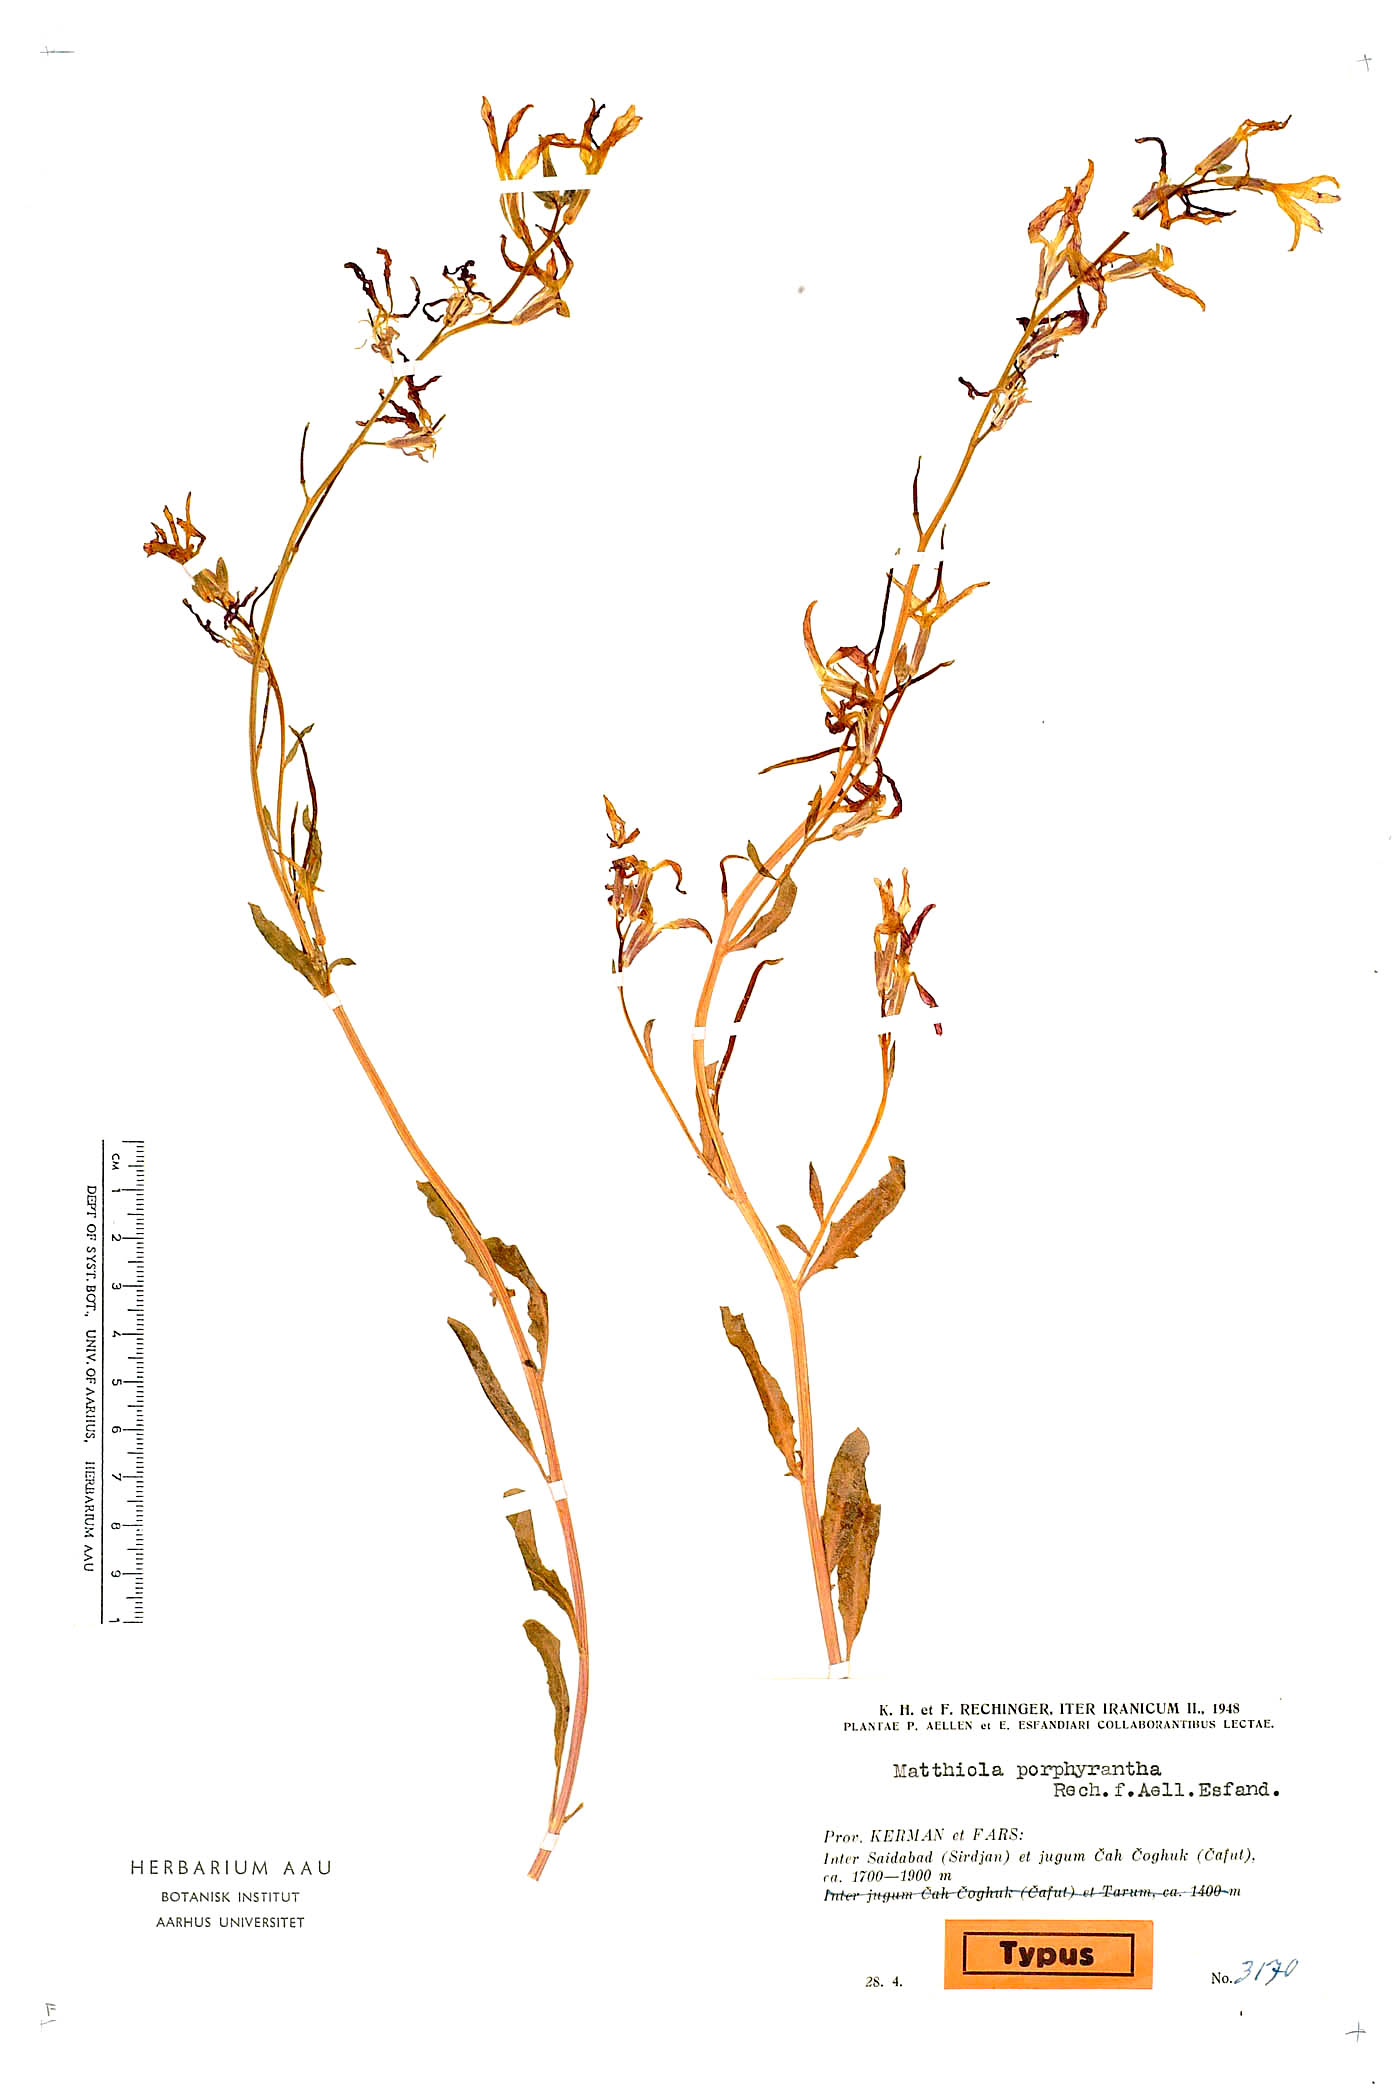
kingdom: Plantae
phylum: Tracheophyta
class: Magnoliopsida
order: Brassicales
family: Brassicaceae
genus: Matthiola
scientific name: Matthiola chenopodiifolia
